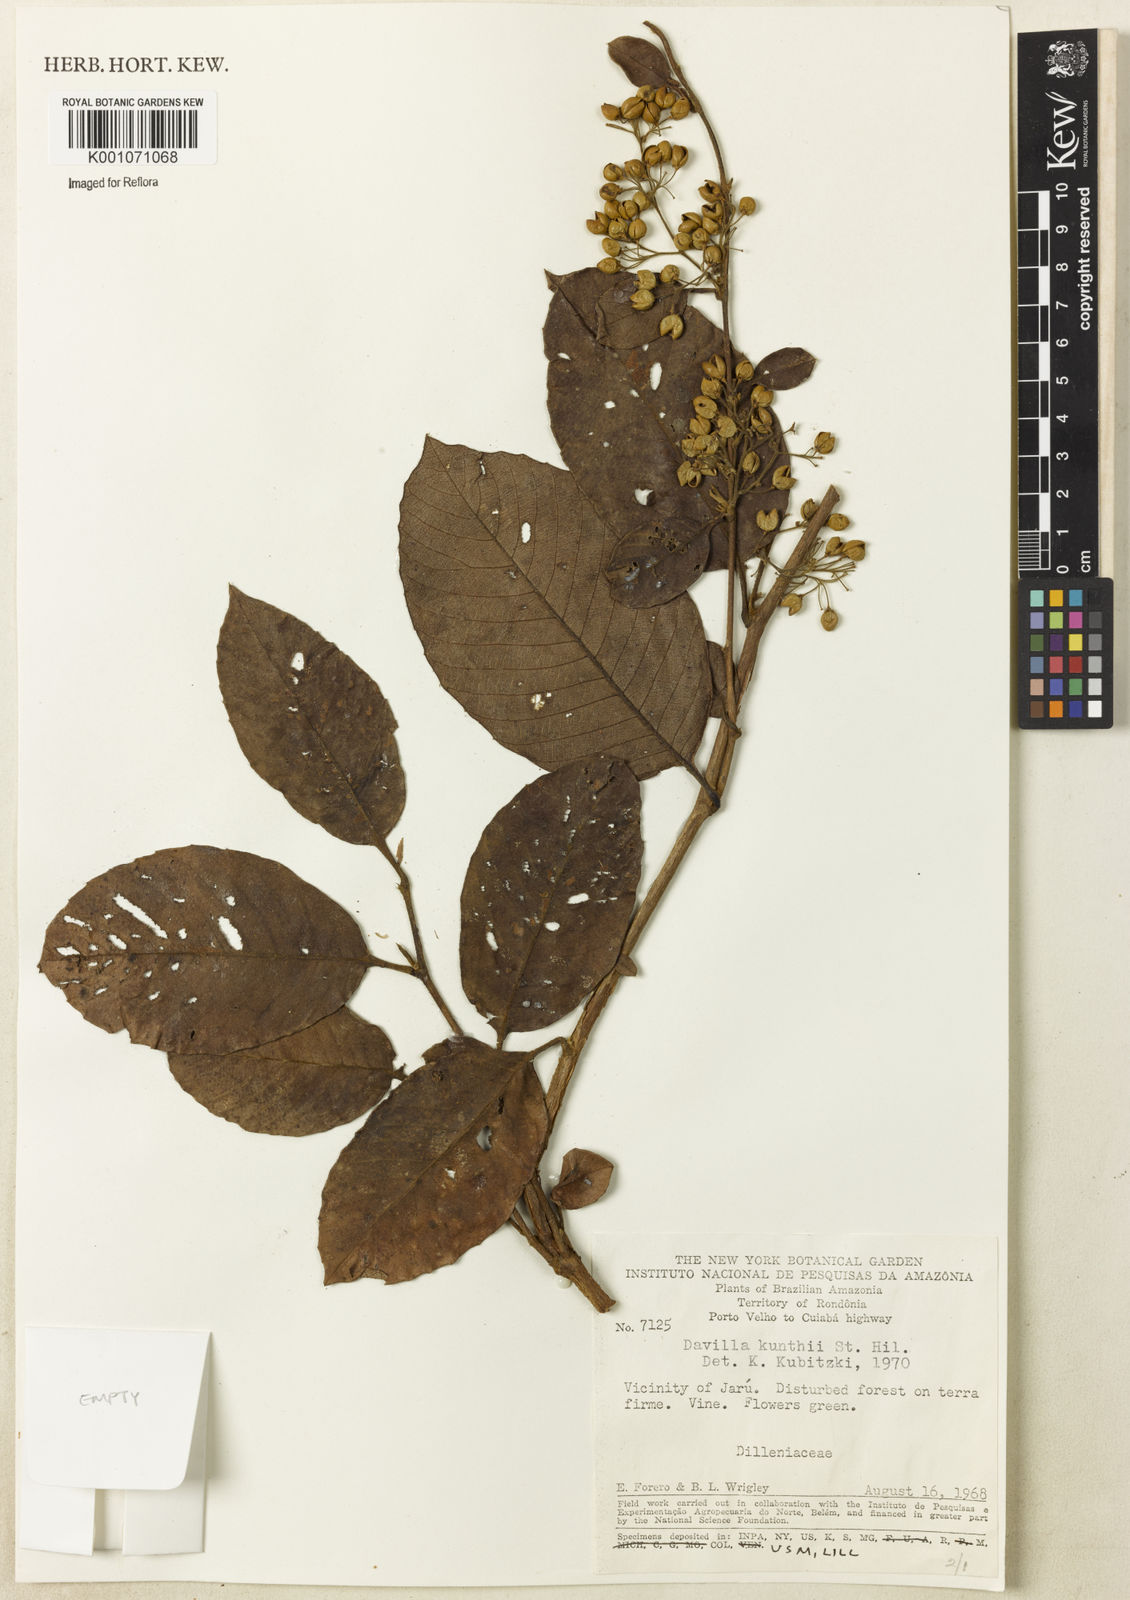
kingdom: Plantae
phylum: Tracheophyta
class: Magnoliopsida
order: Dilleniales
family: Dilleniaceae
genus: Davilla
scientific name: Davilla kunthii
